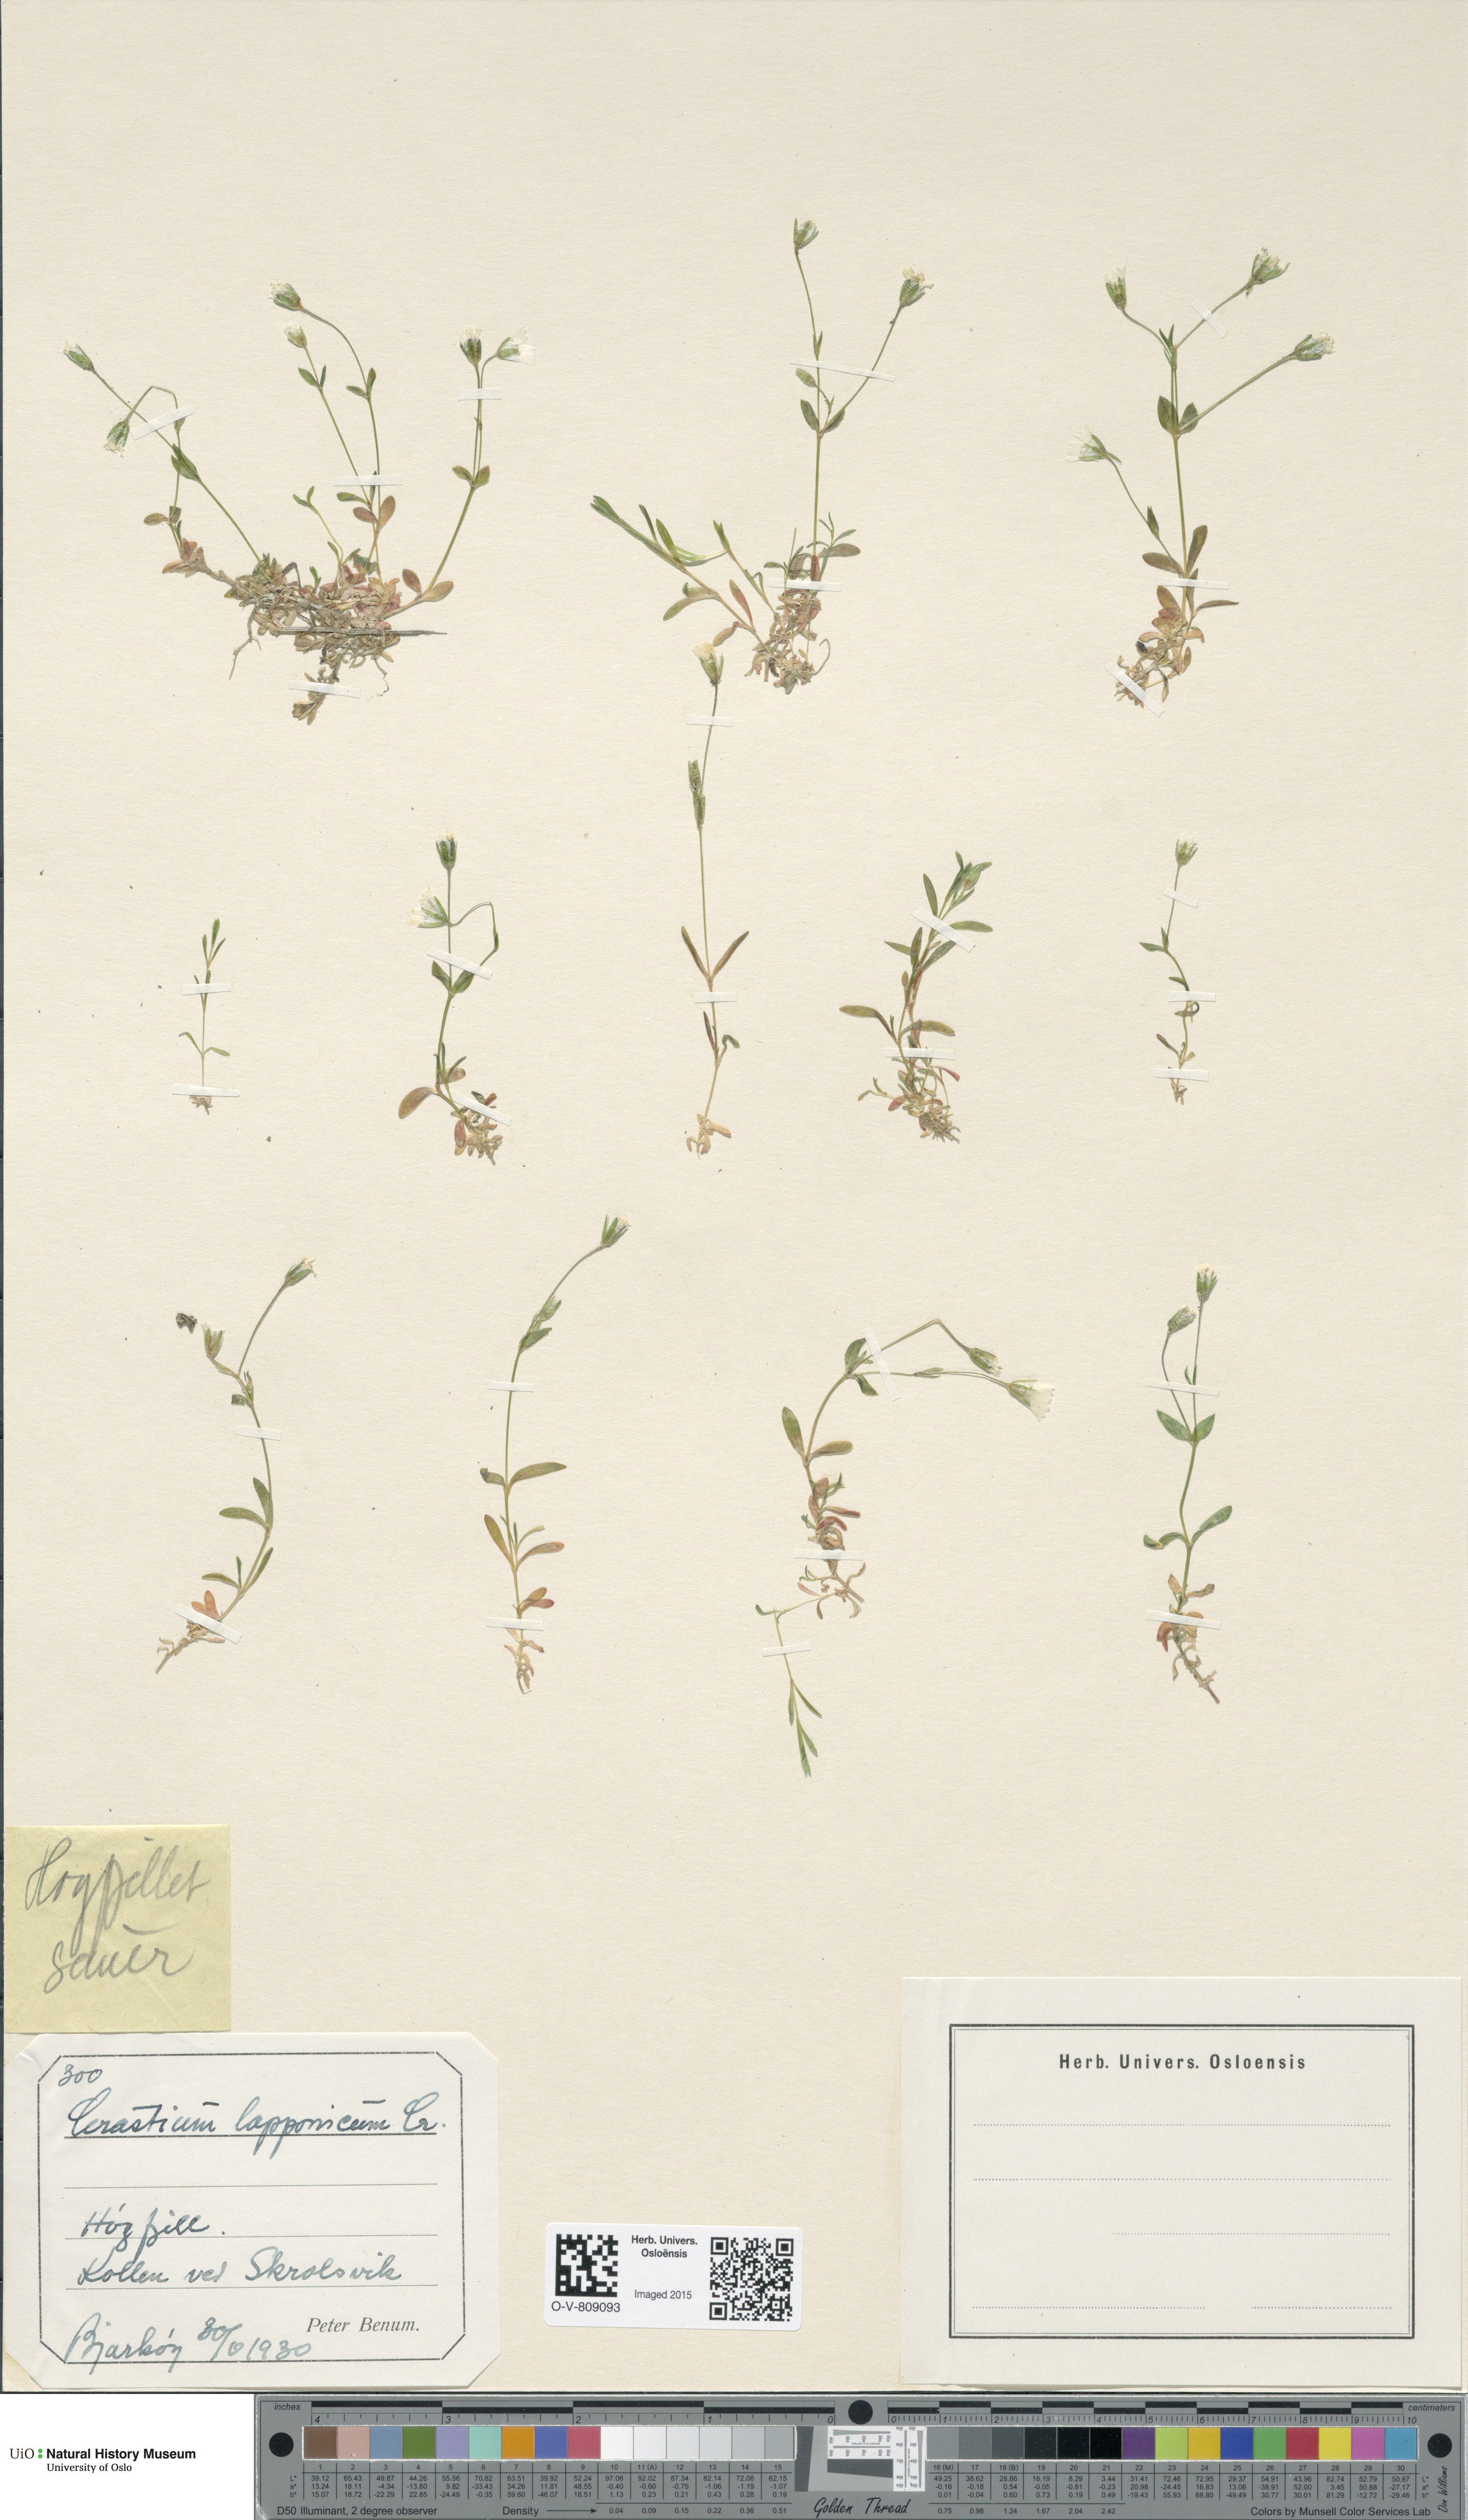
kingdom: Plantae
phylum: Tracheophyta
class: Magnoliopsida
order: Caryophyllales
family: Caryophyllaceae
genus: Dichodon
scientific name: Dichodon cerastoides
